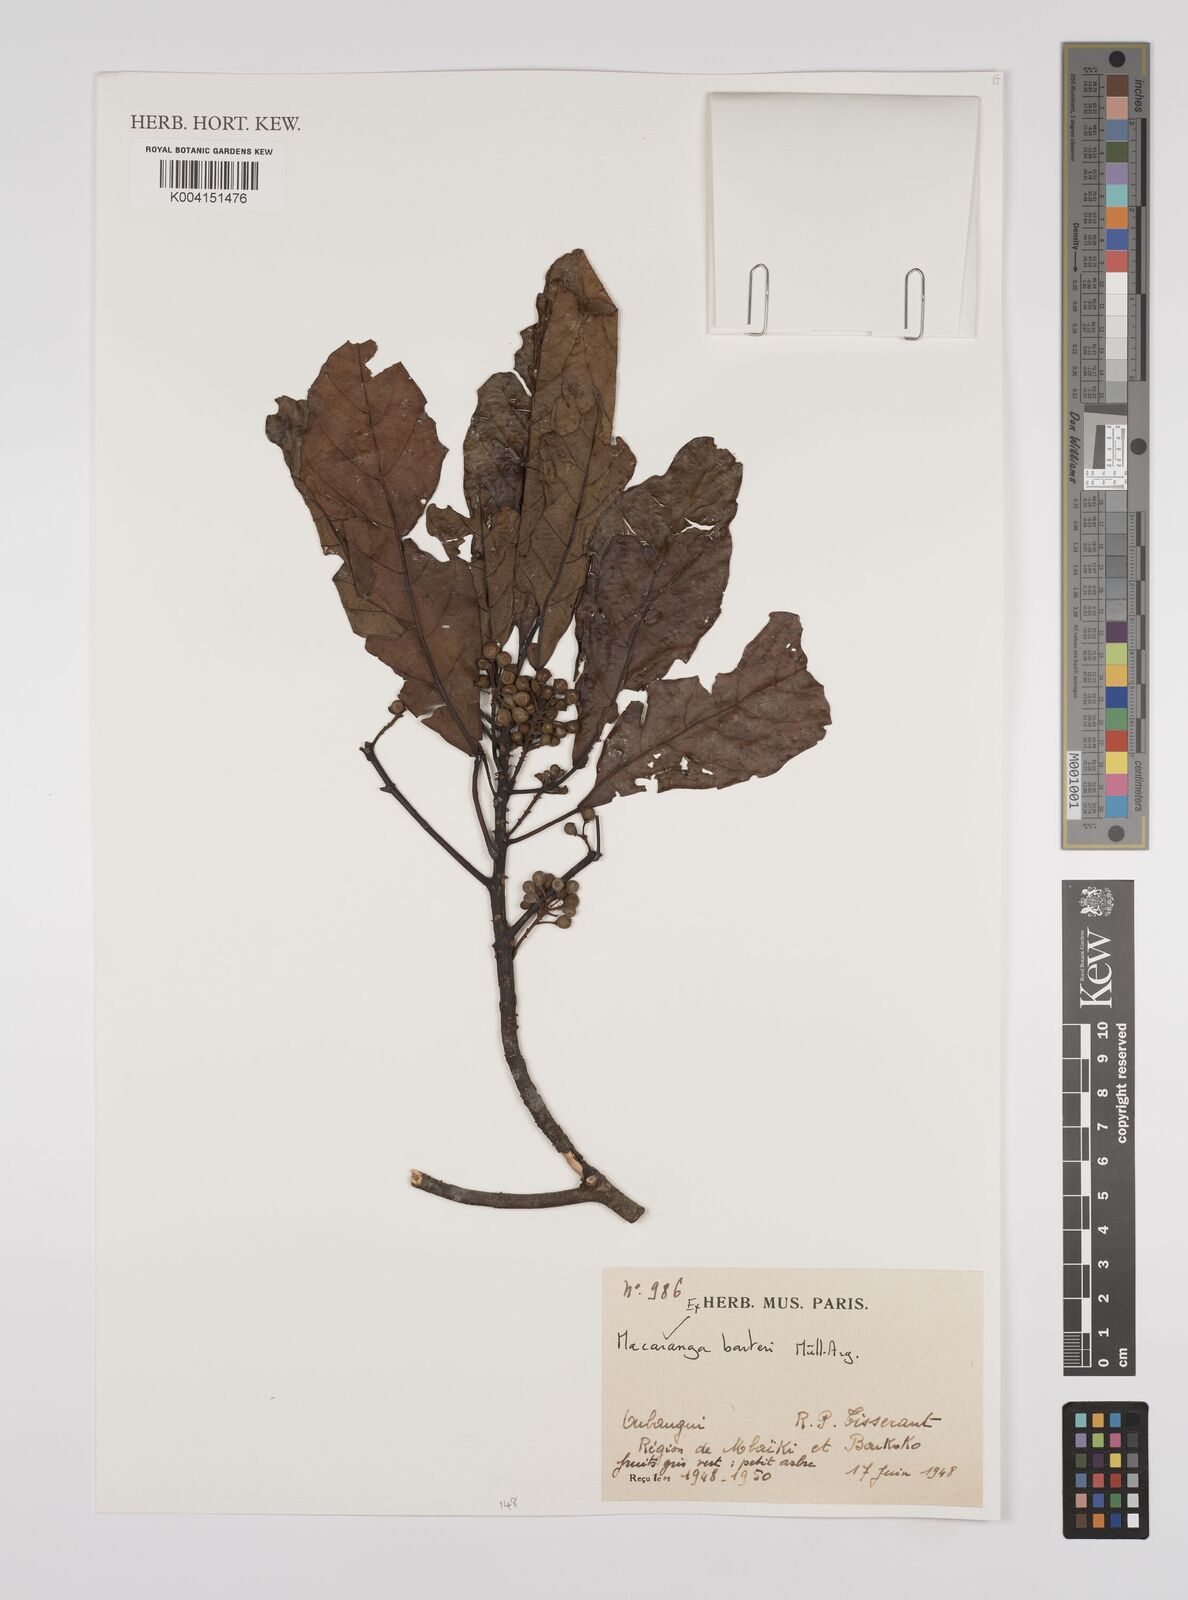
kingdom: Plantae
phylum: Tracheophyta
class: Magnoliopsida
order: Malpighiales
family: Euphorbiaceae
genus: Macaranga
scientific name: Macaranga barteri
